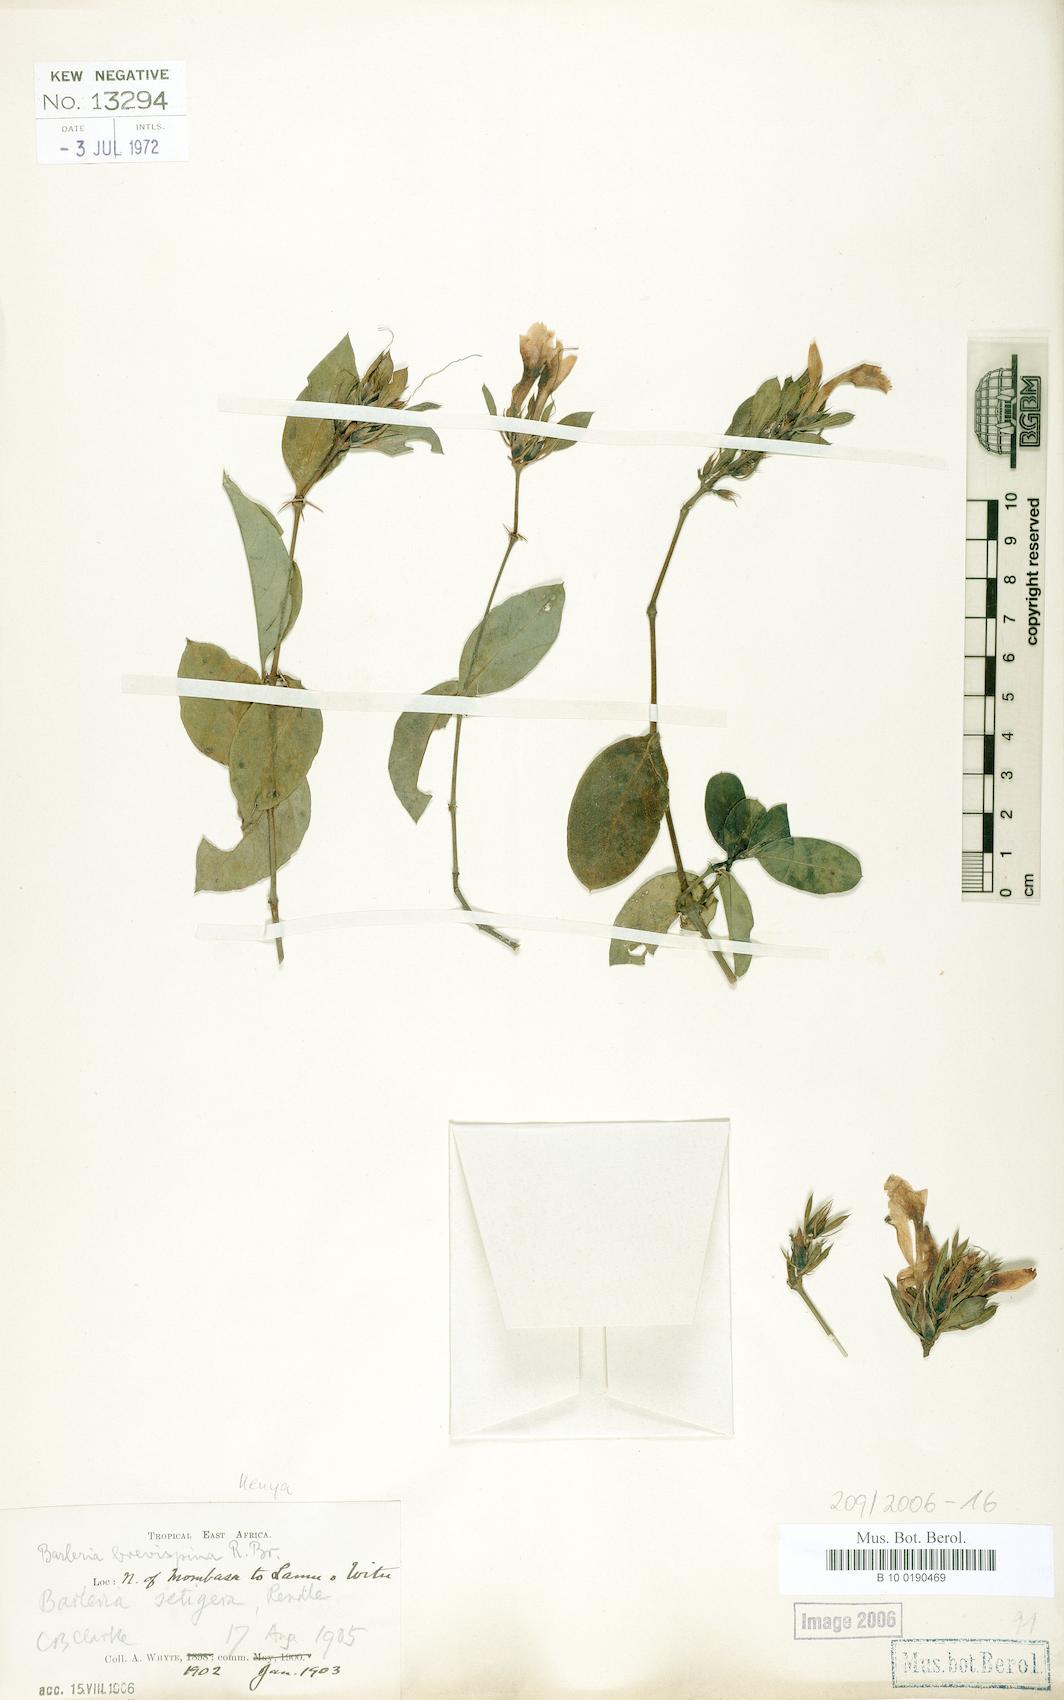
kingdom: Plantae
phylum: Tracheophyta
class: Magnoliopsida
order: Lamiales
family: Acanthaceae
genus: Barleria
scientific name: Barleria quadrispina
